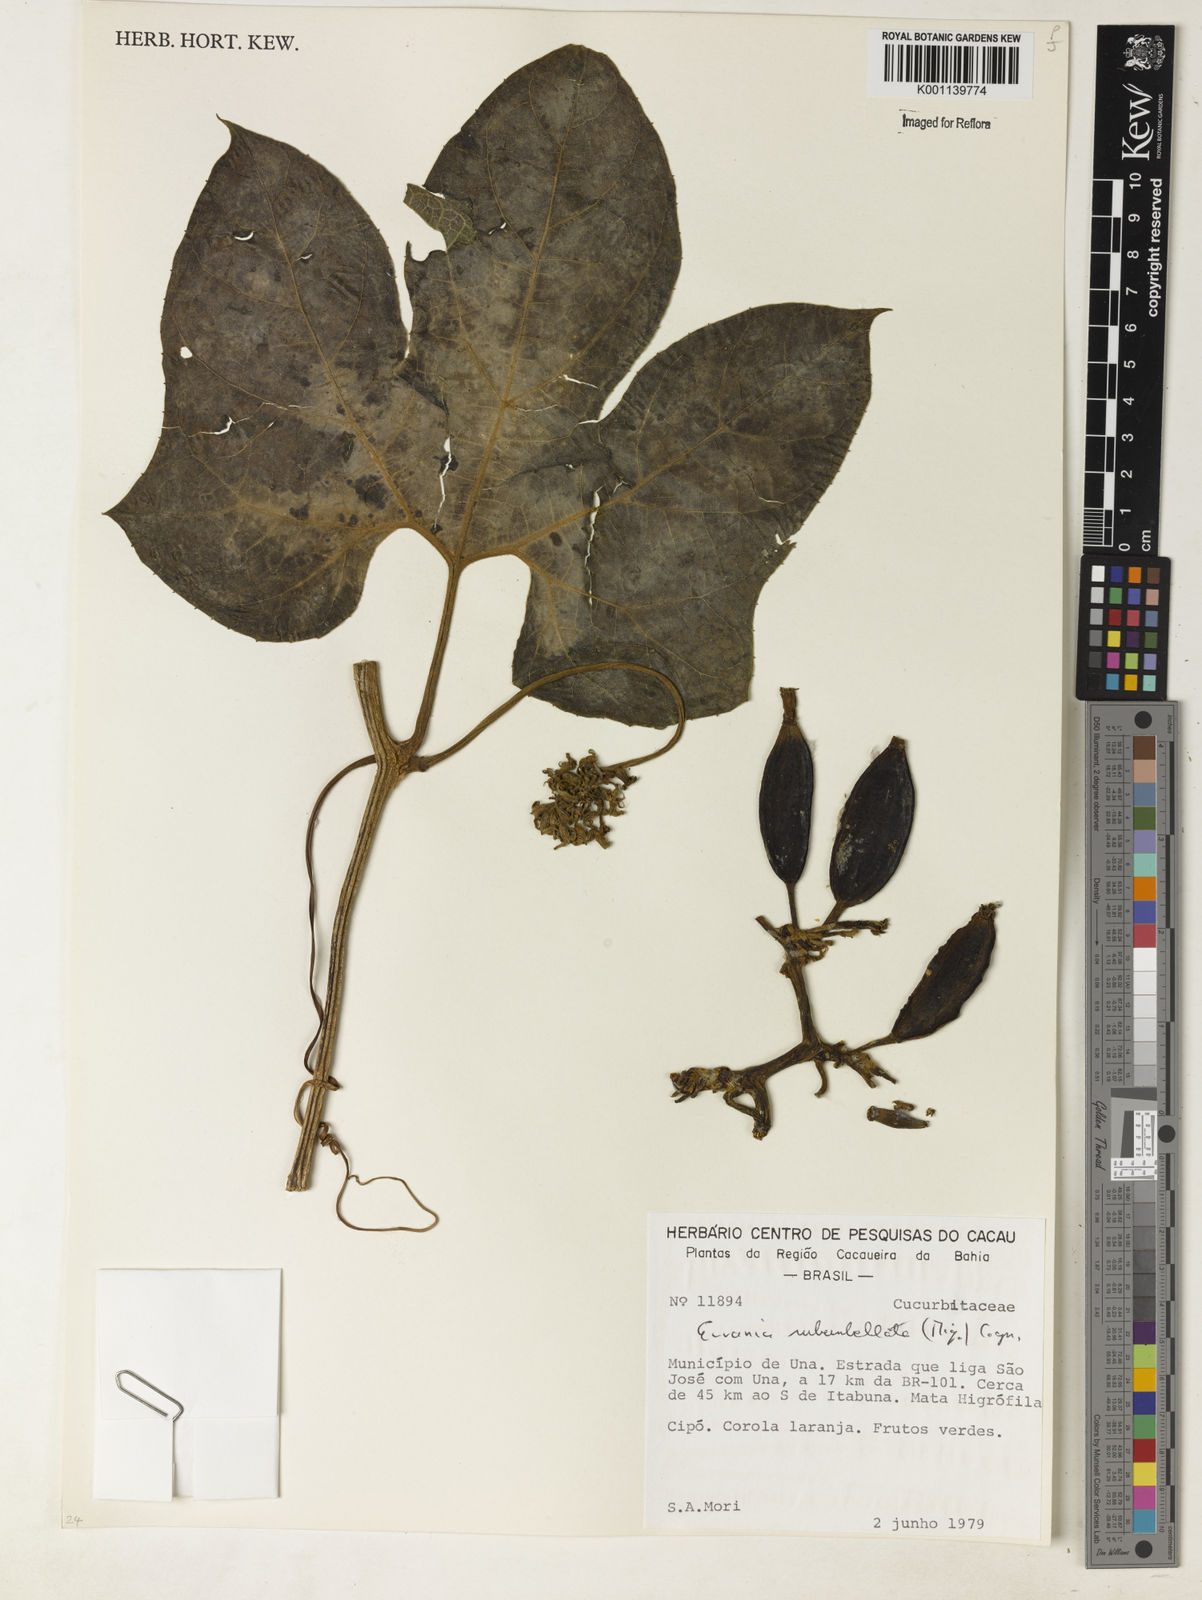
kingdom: Plantae
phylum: Tracheophyta
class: Magnoliopsida
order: Cucurbitales
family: Cucurbitaceae
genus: Gurania
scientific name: Gurania subumbellata
